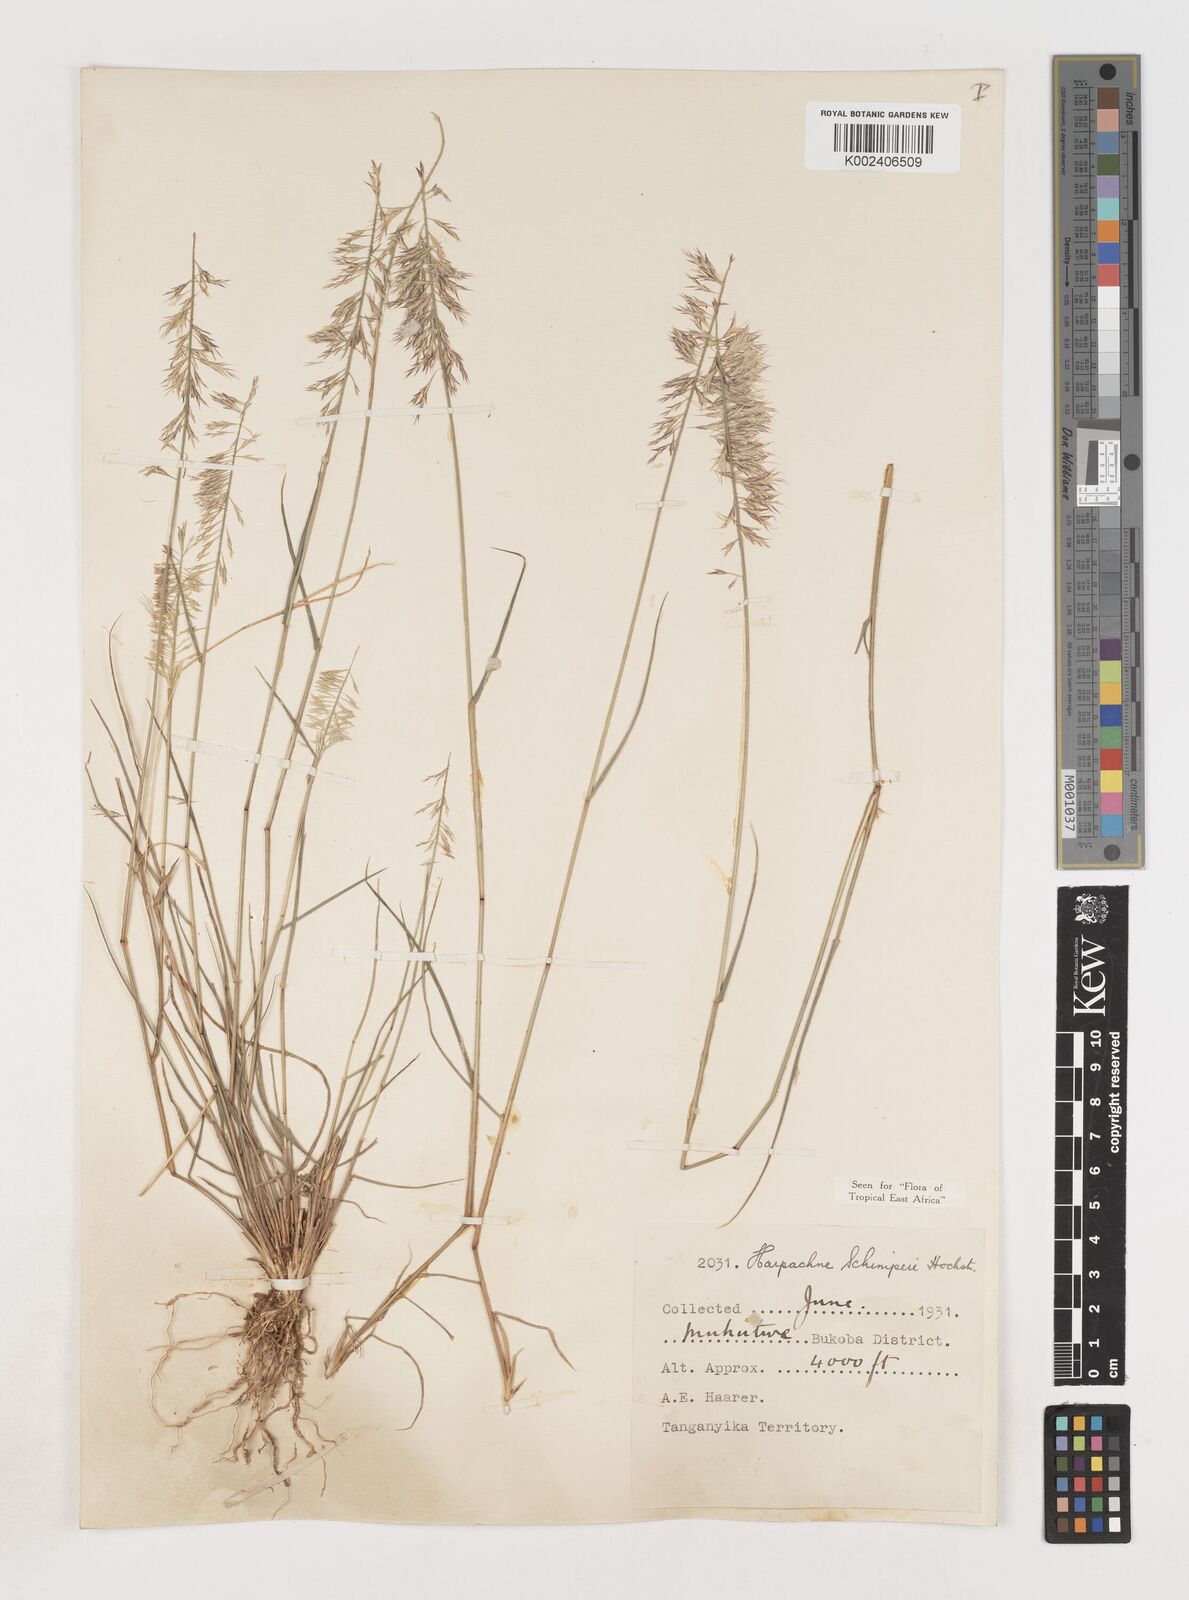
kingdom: Plantae
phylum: Tracheophyta
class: Liliopsida
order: Poales
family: Poaceae
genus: Harpachne
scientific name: Harpachne schimperi
